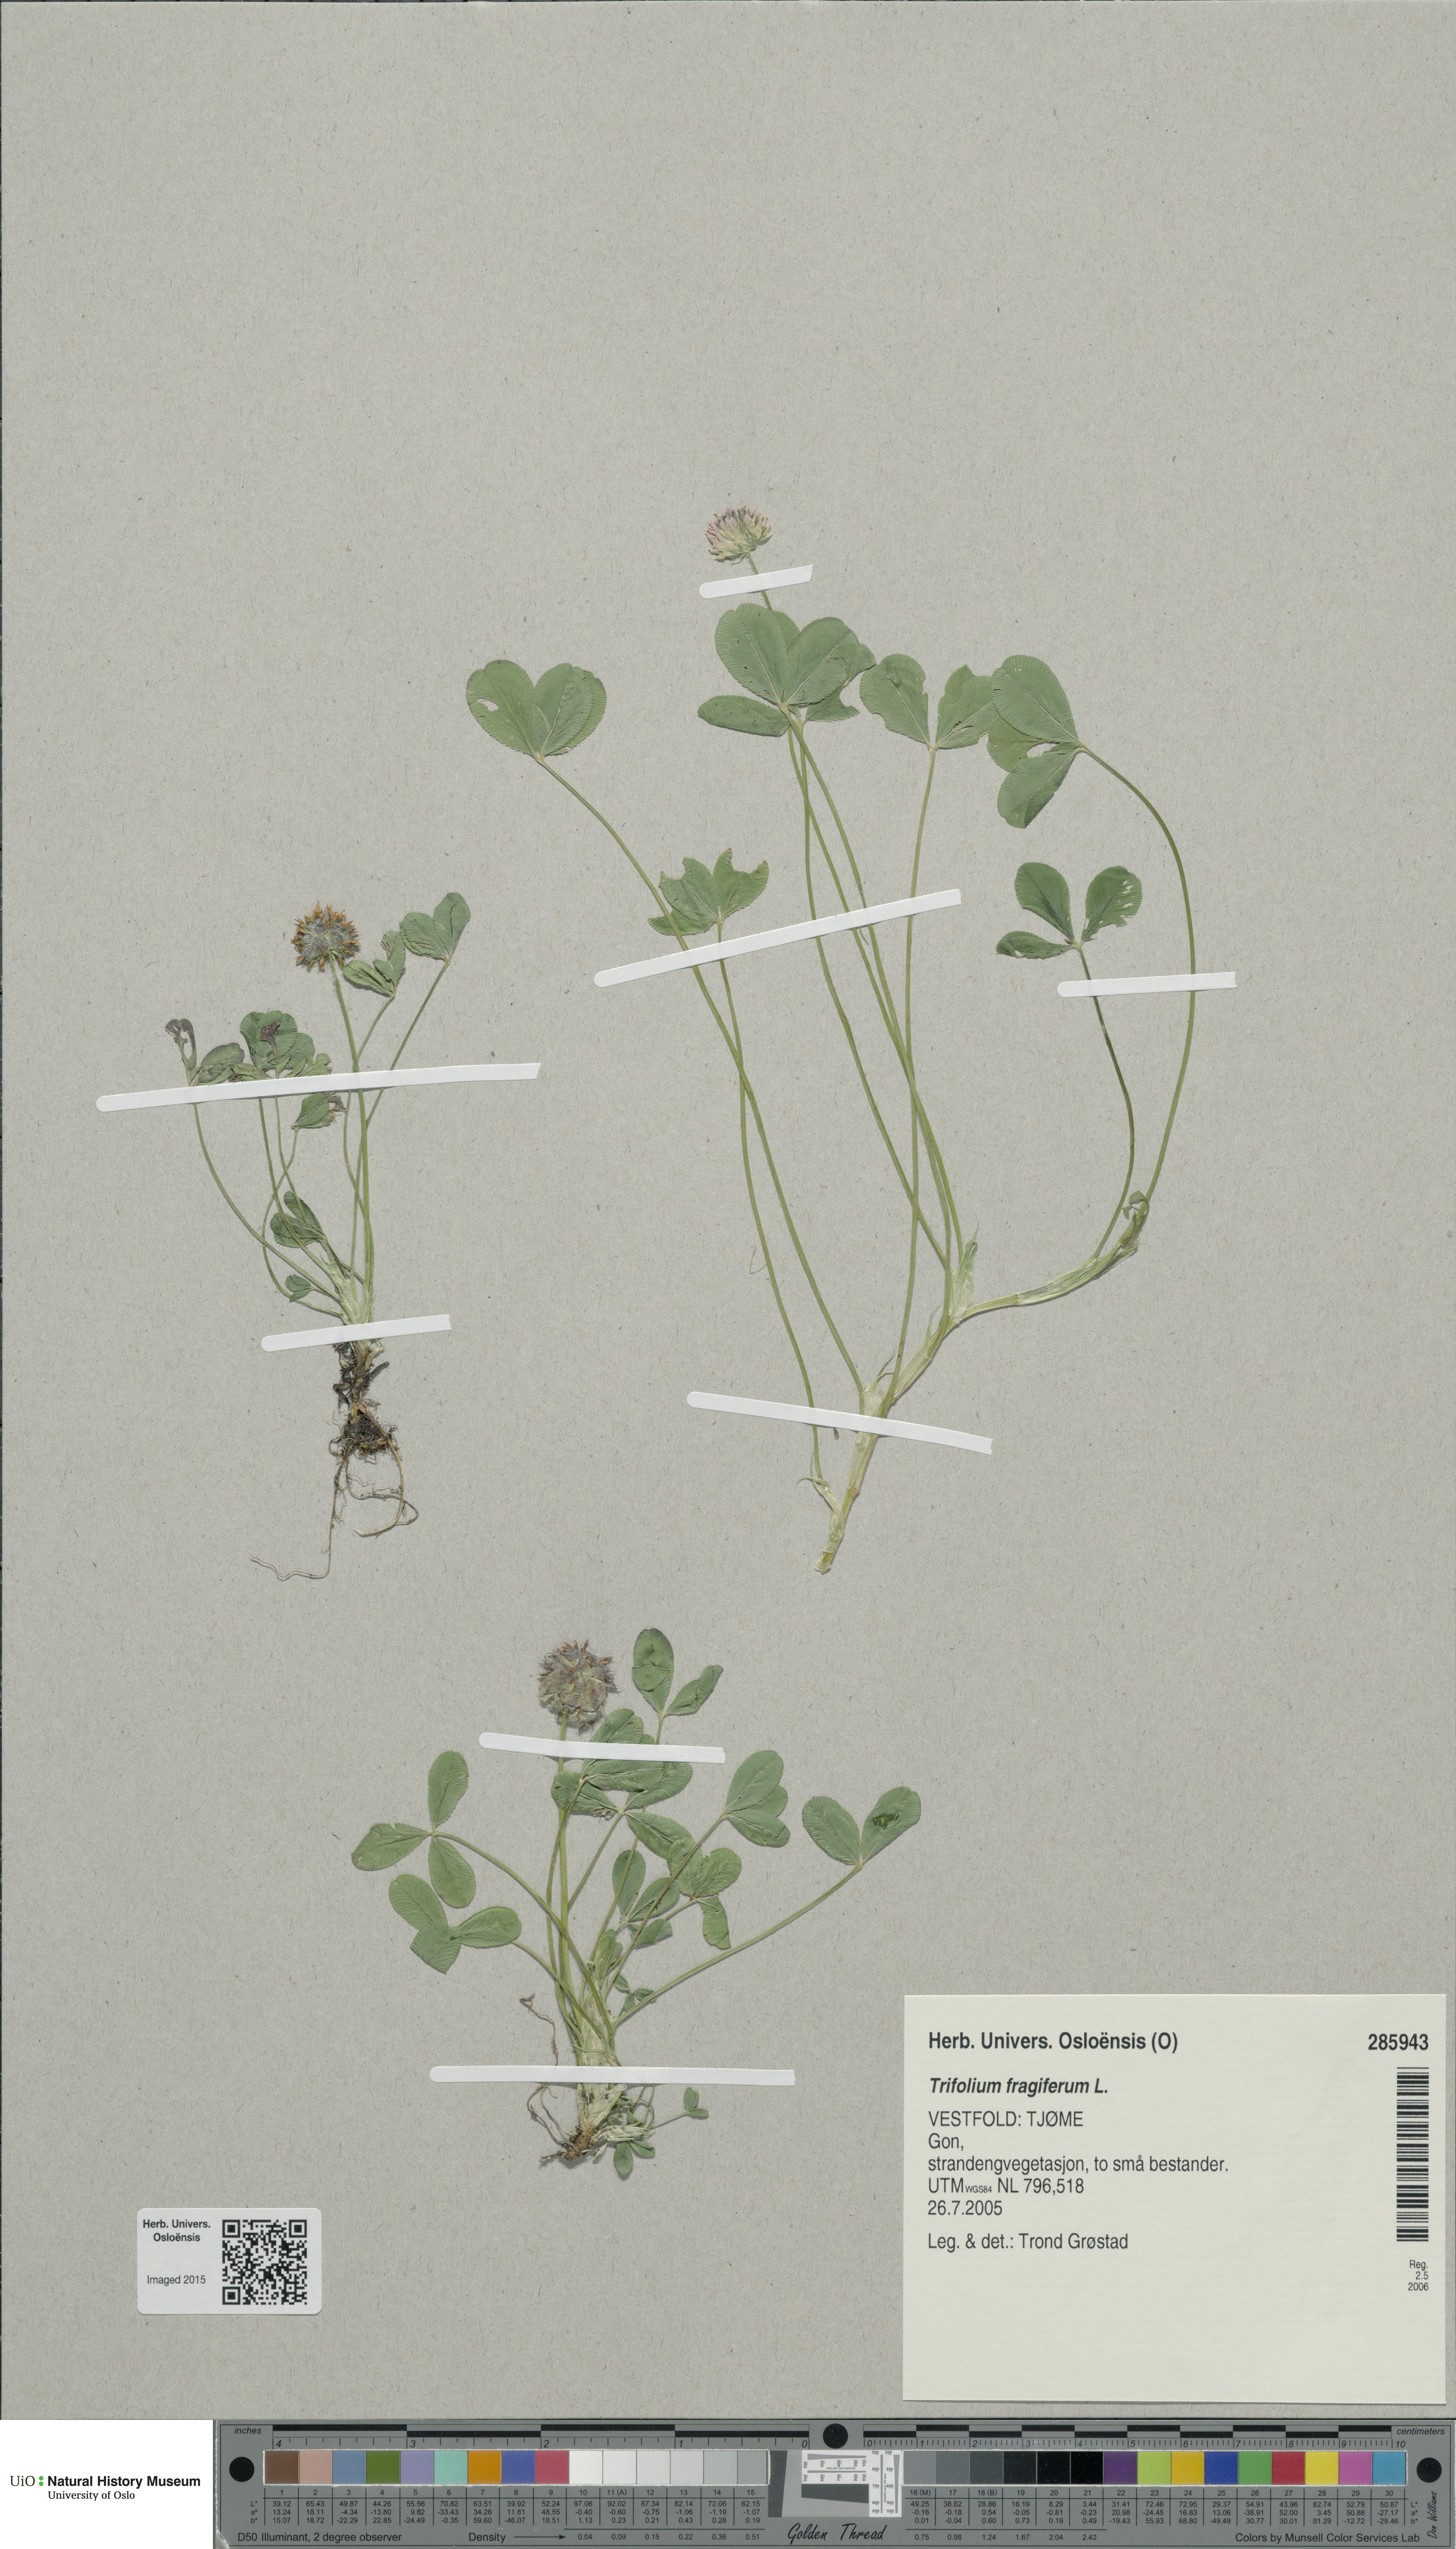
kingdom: Plantae
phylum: Tracheophyta
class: Magnoliopsida
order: Fabales
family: Fabaceae
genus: Trifolium
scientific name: Trifolium fragiferum
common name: Strawberry clover
